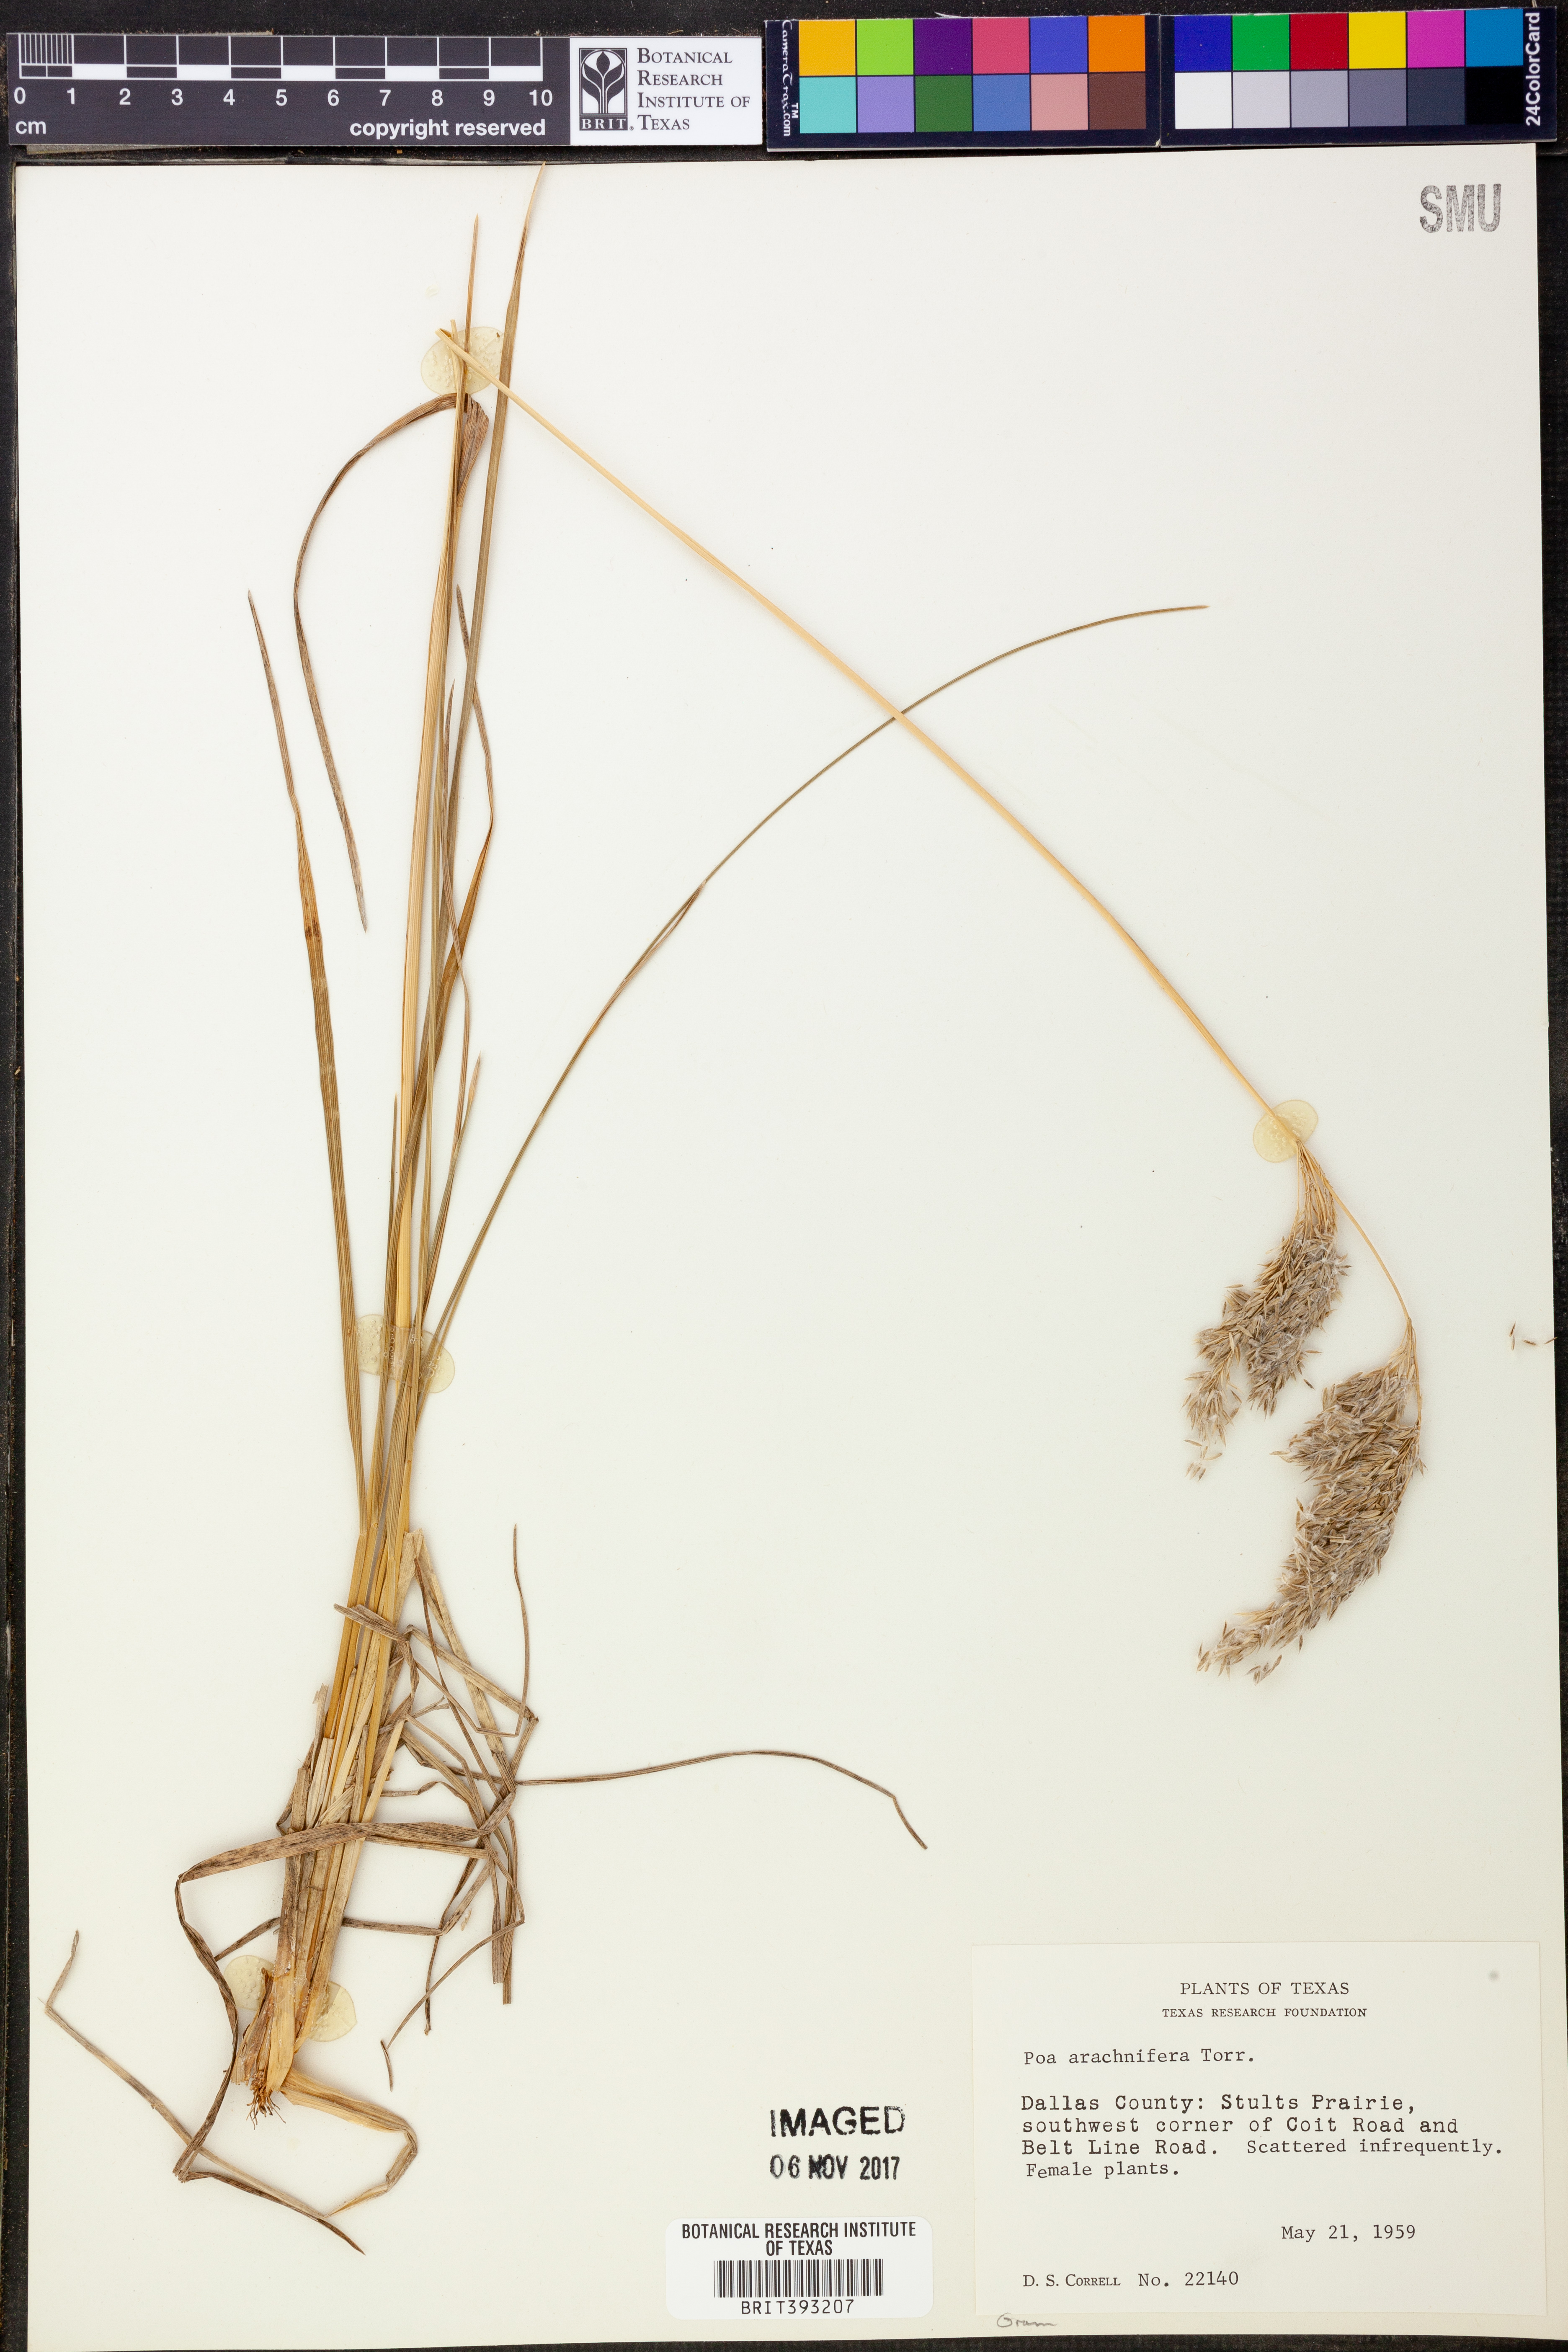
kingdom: Plantae
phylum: Tracheophyta
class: Liliopsida
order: Poales
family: Poaceae
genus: Poa
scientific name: Poa arachnifera
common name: Texas bluegrass
